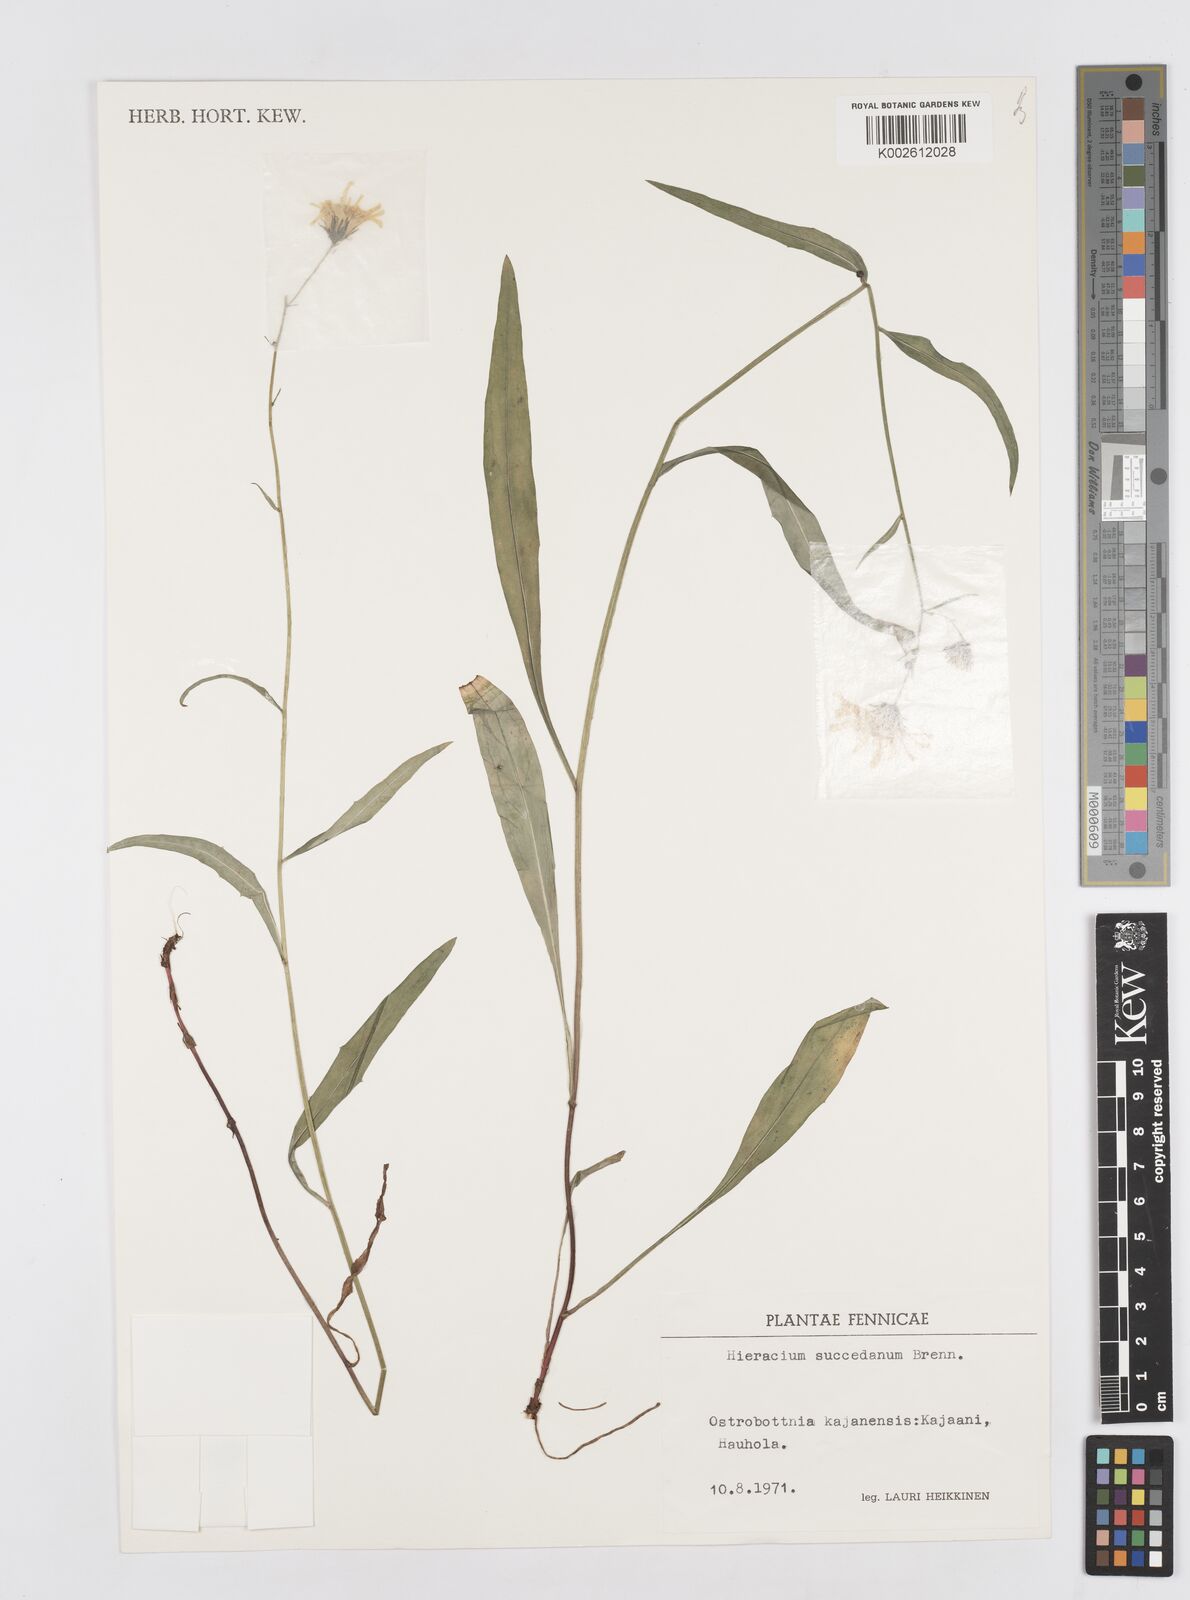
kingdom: Plantae
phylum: Tracheophyta
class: Magnoliopsida
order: Asterales
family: Asteraceae
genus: Hieracium
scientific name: Hieracium laevigatum
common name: Smooth hawkweed
